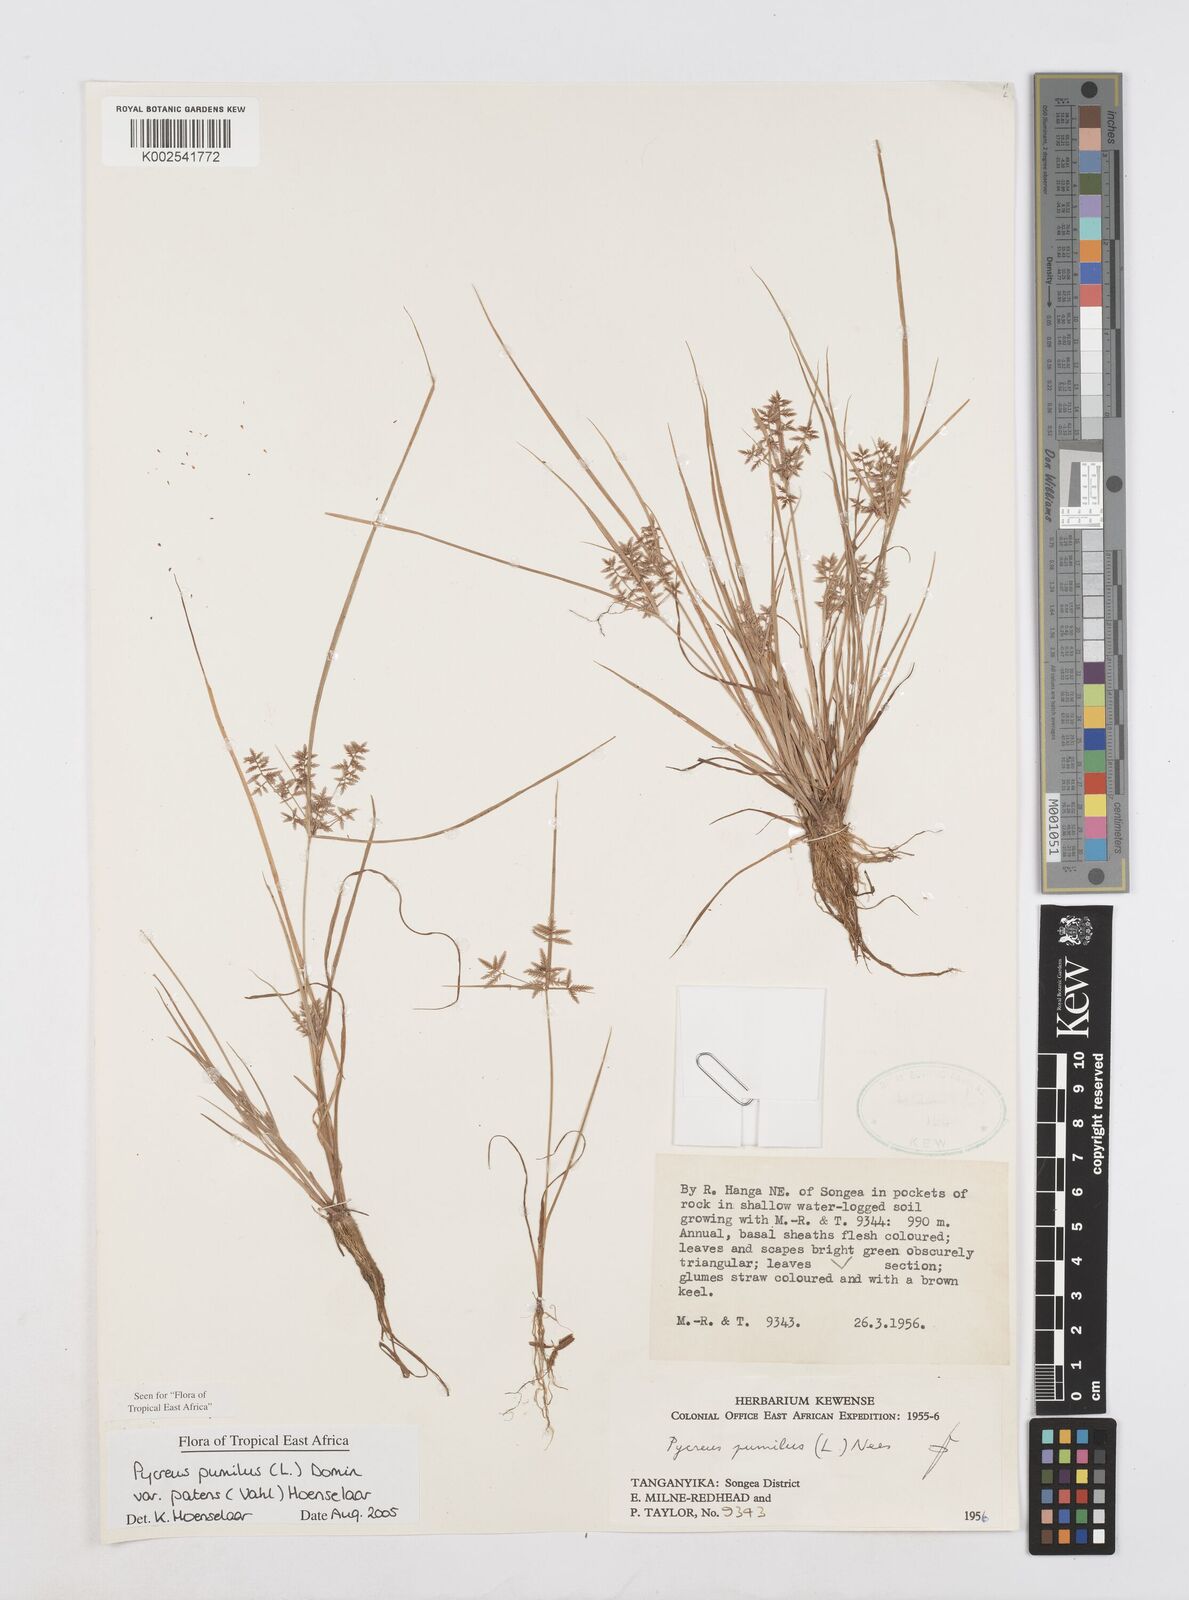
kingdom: Plantae
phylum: Tracheophyta
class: Liliopsida
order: Poales
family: Cyperaceae
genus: Cyperus
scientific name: Cyperus pumilus
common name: Low flatsedge
